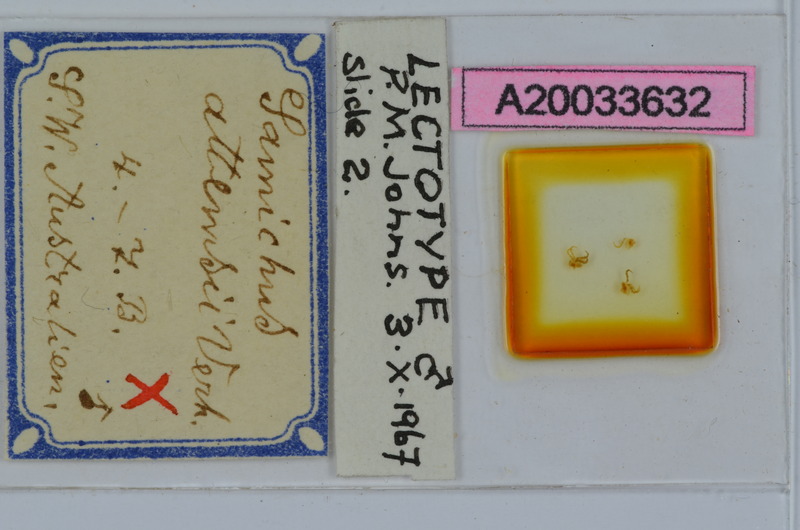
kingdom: Animalia
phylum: Arthropoda
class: Diplopoda
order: Spirostreptida
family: Iulomorphidae
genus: Samichus
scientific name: Samichus attemsii
